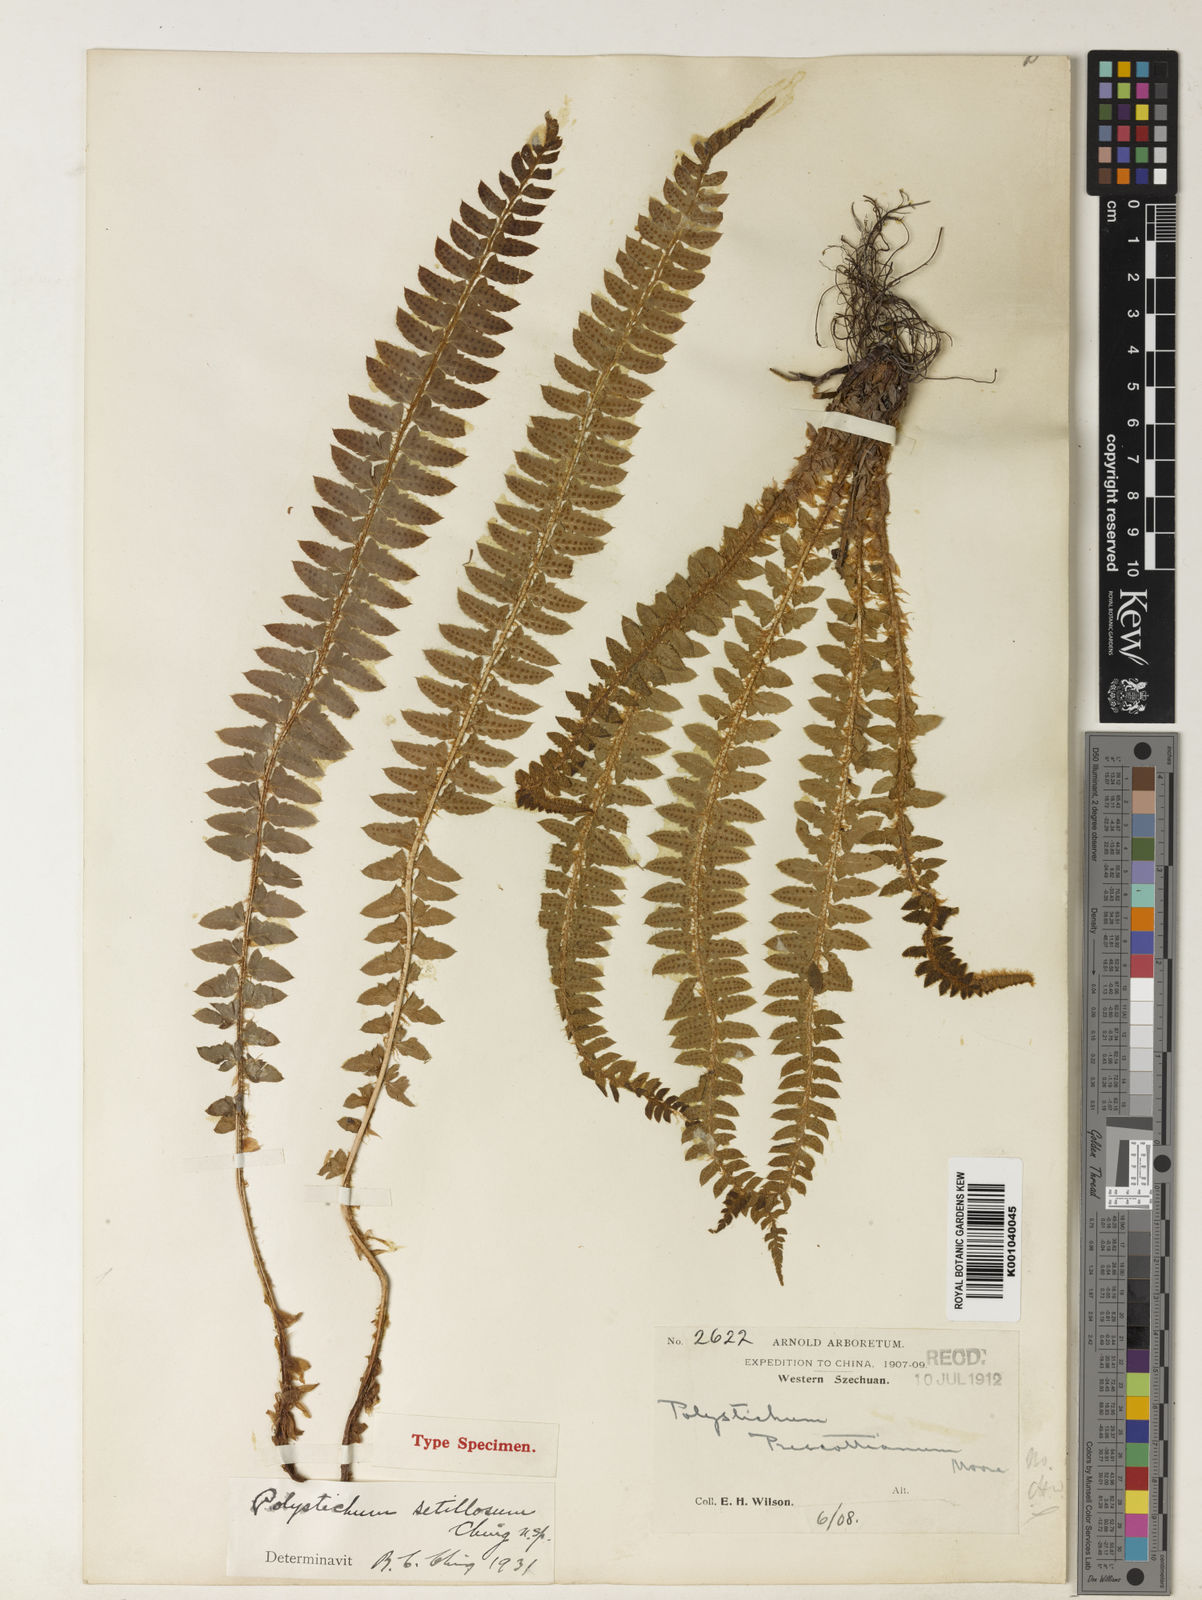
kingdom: Plantae
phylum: Tracheophyta
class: Polypodiopsida
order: Polypodiales
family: Dryopteridaceae
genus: Polystichum
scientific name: Polystichum setillosum
